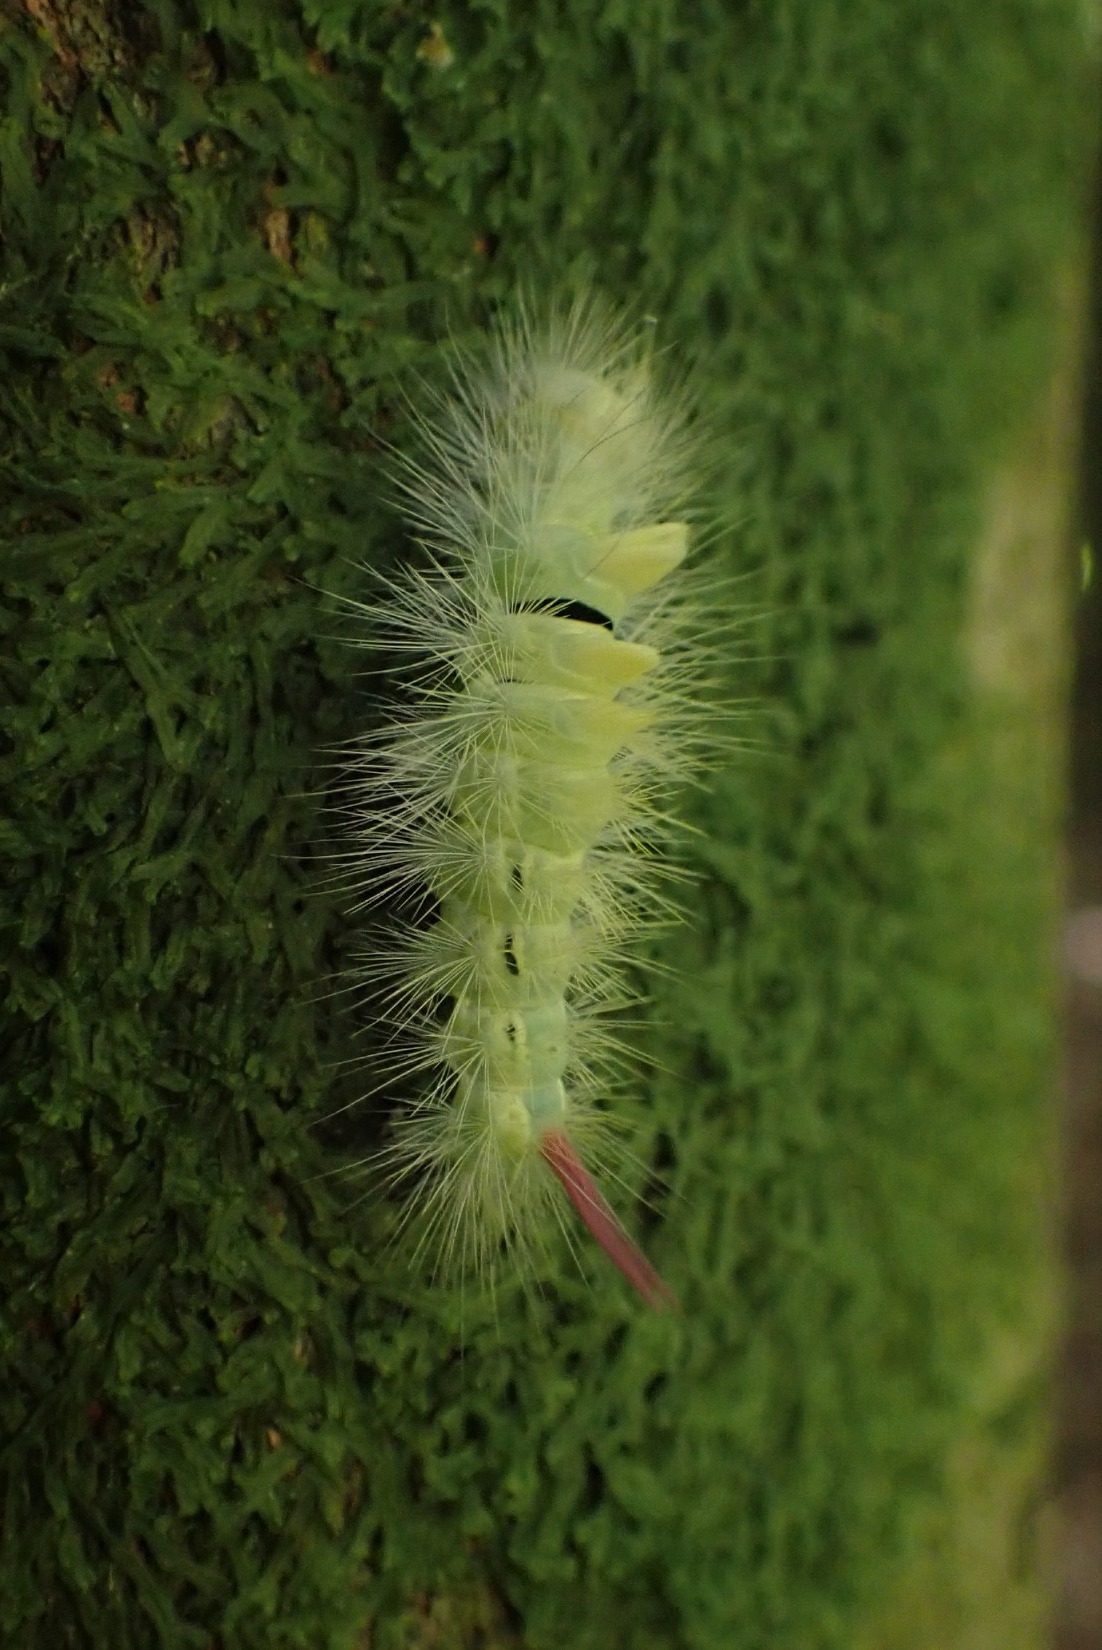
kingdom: Animalia
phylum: Arthropoda
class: Insecta
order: Lepidoptera
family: Erebidae
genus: Calliteara
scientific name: Calliteara pudibunda
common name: Bøgenonne
